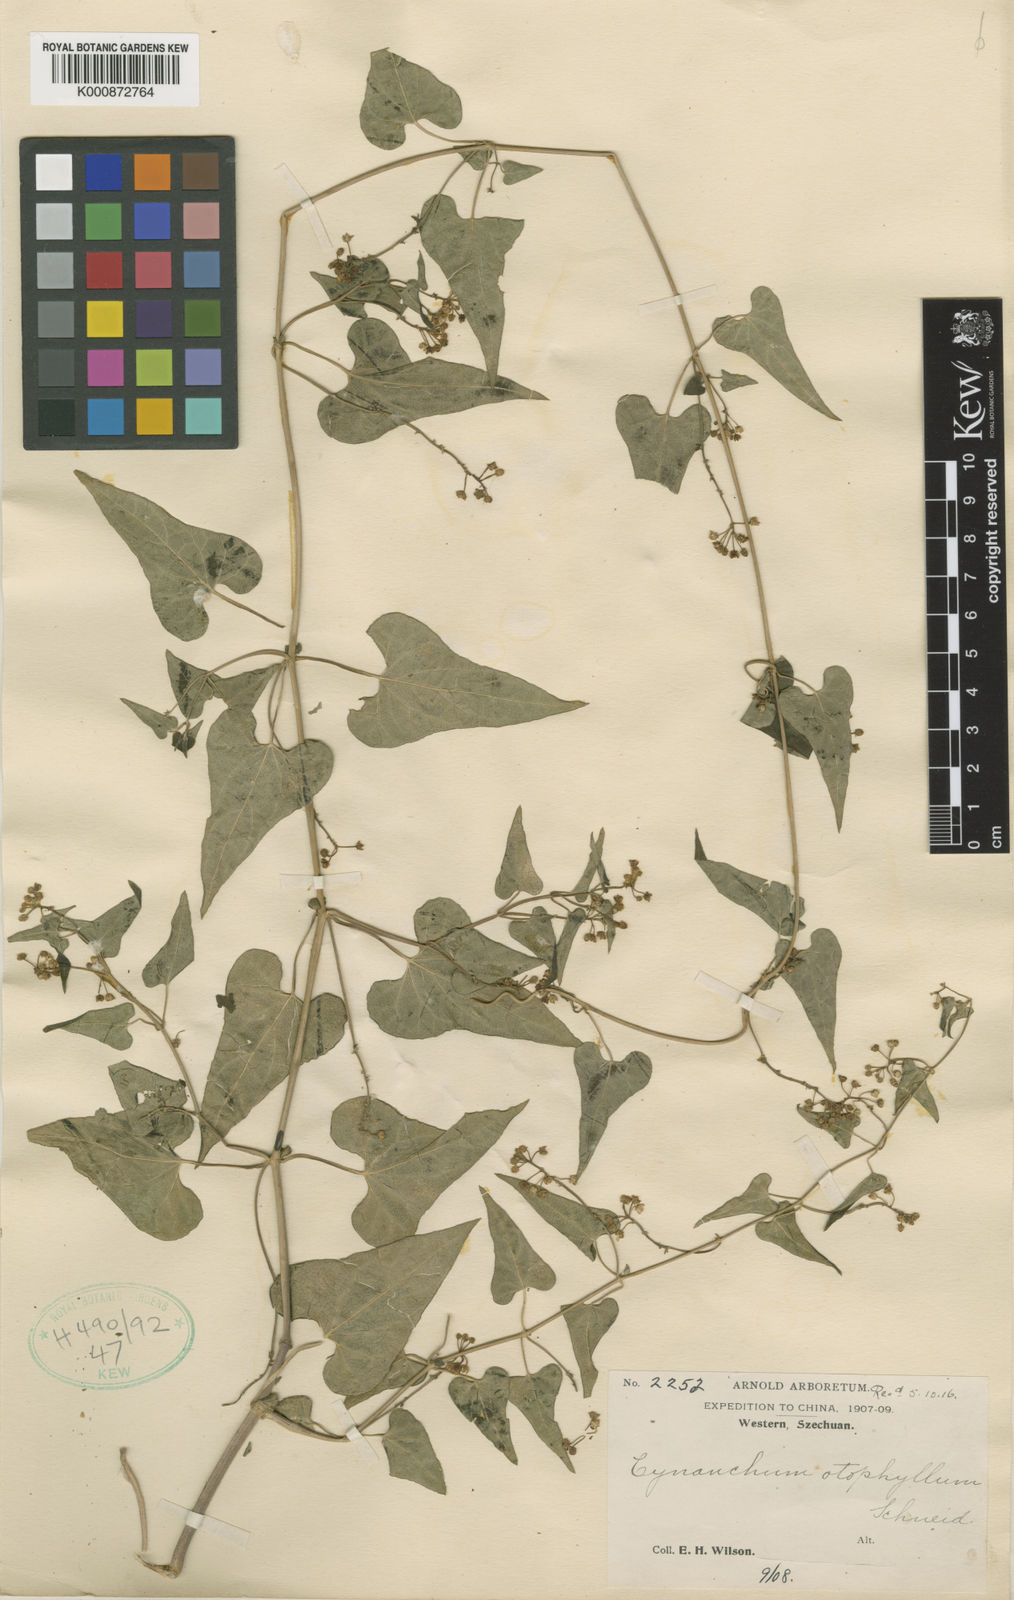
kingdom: Plantae
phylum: Tracheophyta
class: Magnoliopsida
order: Gentianales
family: Apocynaceae
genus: Vincetoxicum
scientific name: Vincetoxicum otophyllum
